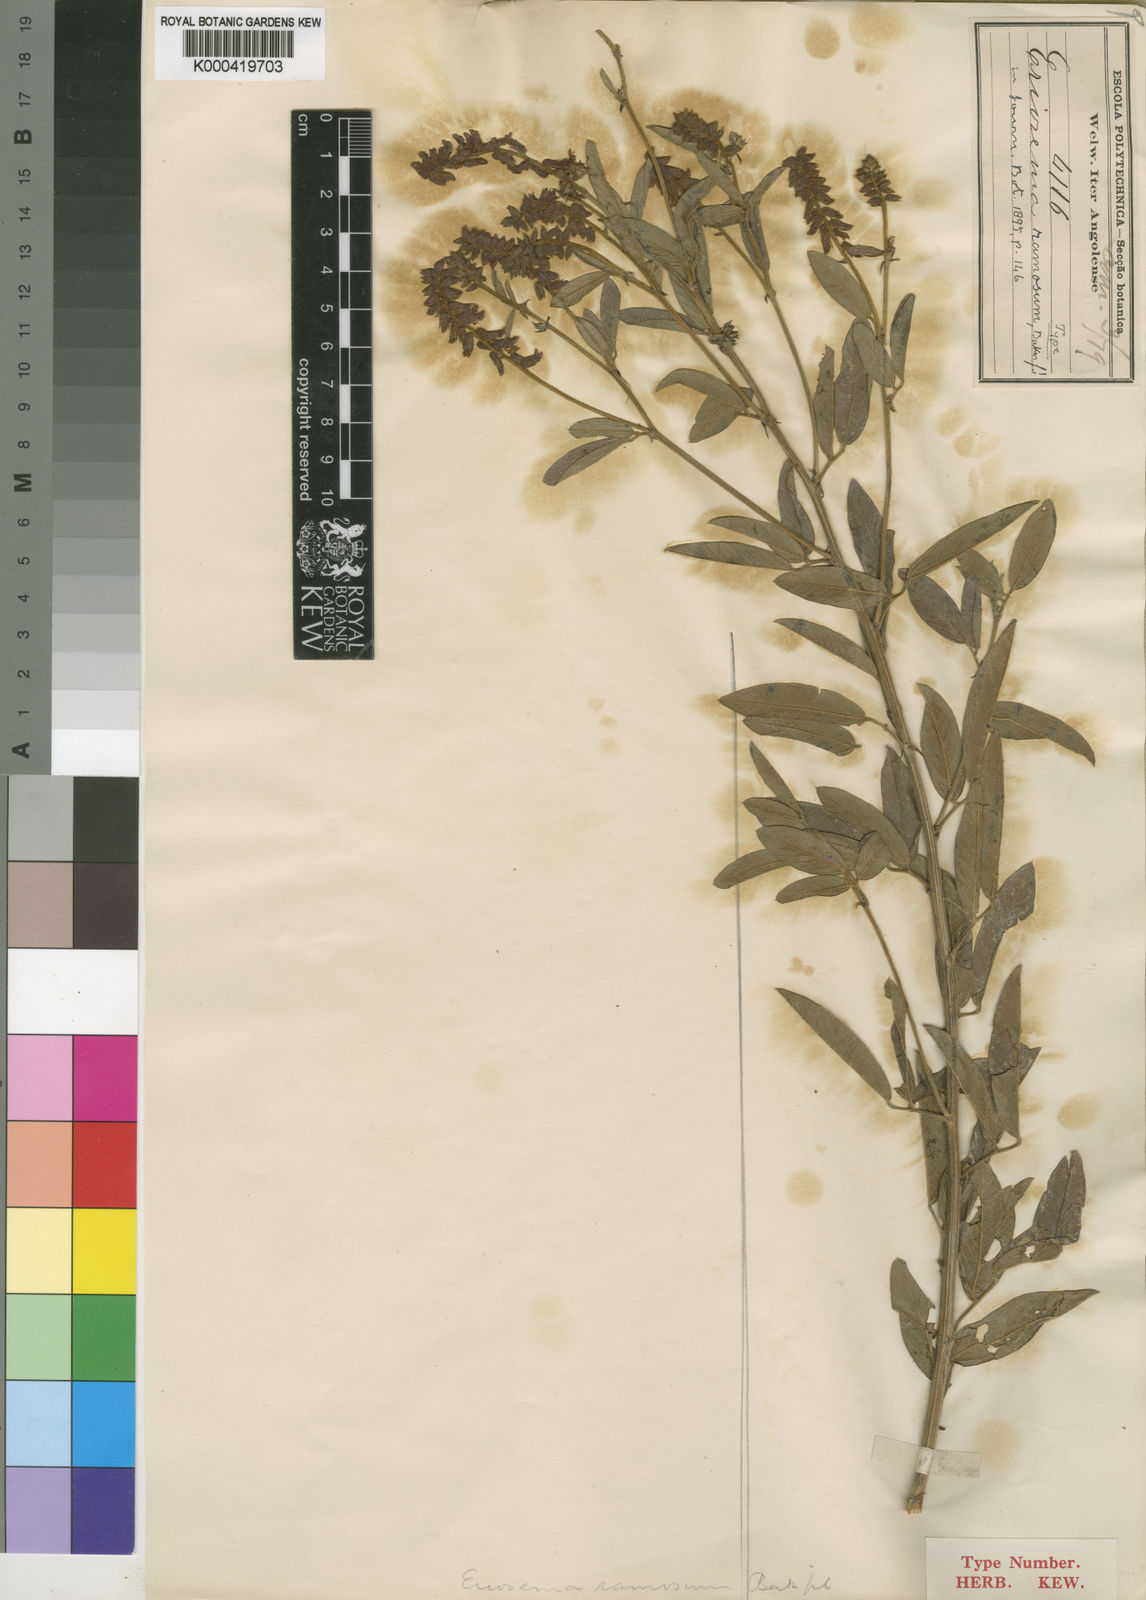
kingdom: Plantae
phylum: Tracheophyta
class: Magnoliopsida
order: Fabales
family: Fabaceae
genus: Eriosema
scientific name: Eriosema ramosum
